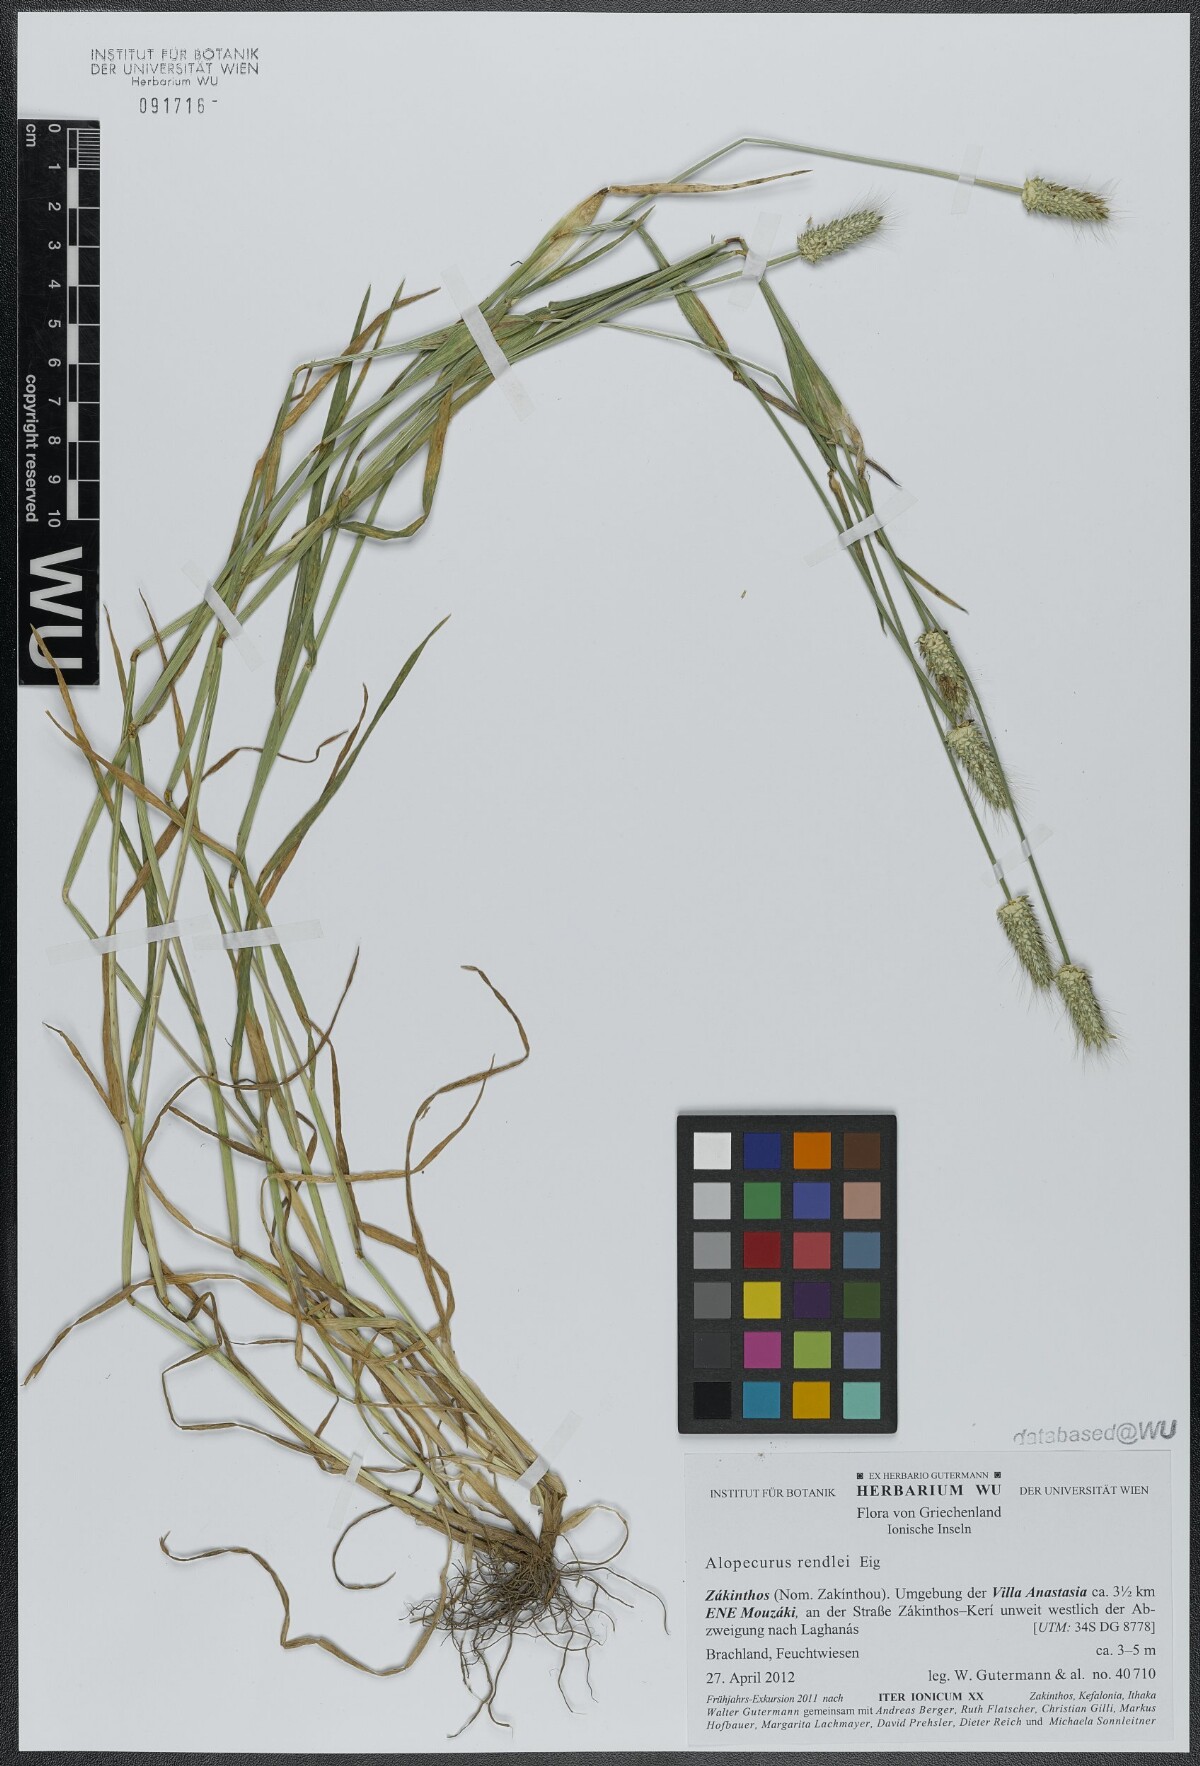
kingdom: Plantae
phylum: Tracheophyta
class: Liliopsida
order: Poales
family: Poaceae
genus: Alopecurus
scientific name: Alopecurus rendlei
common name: Rendle's meadow foxtail
